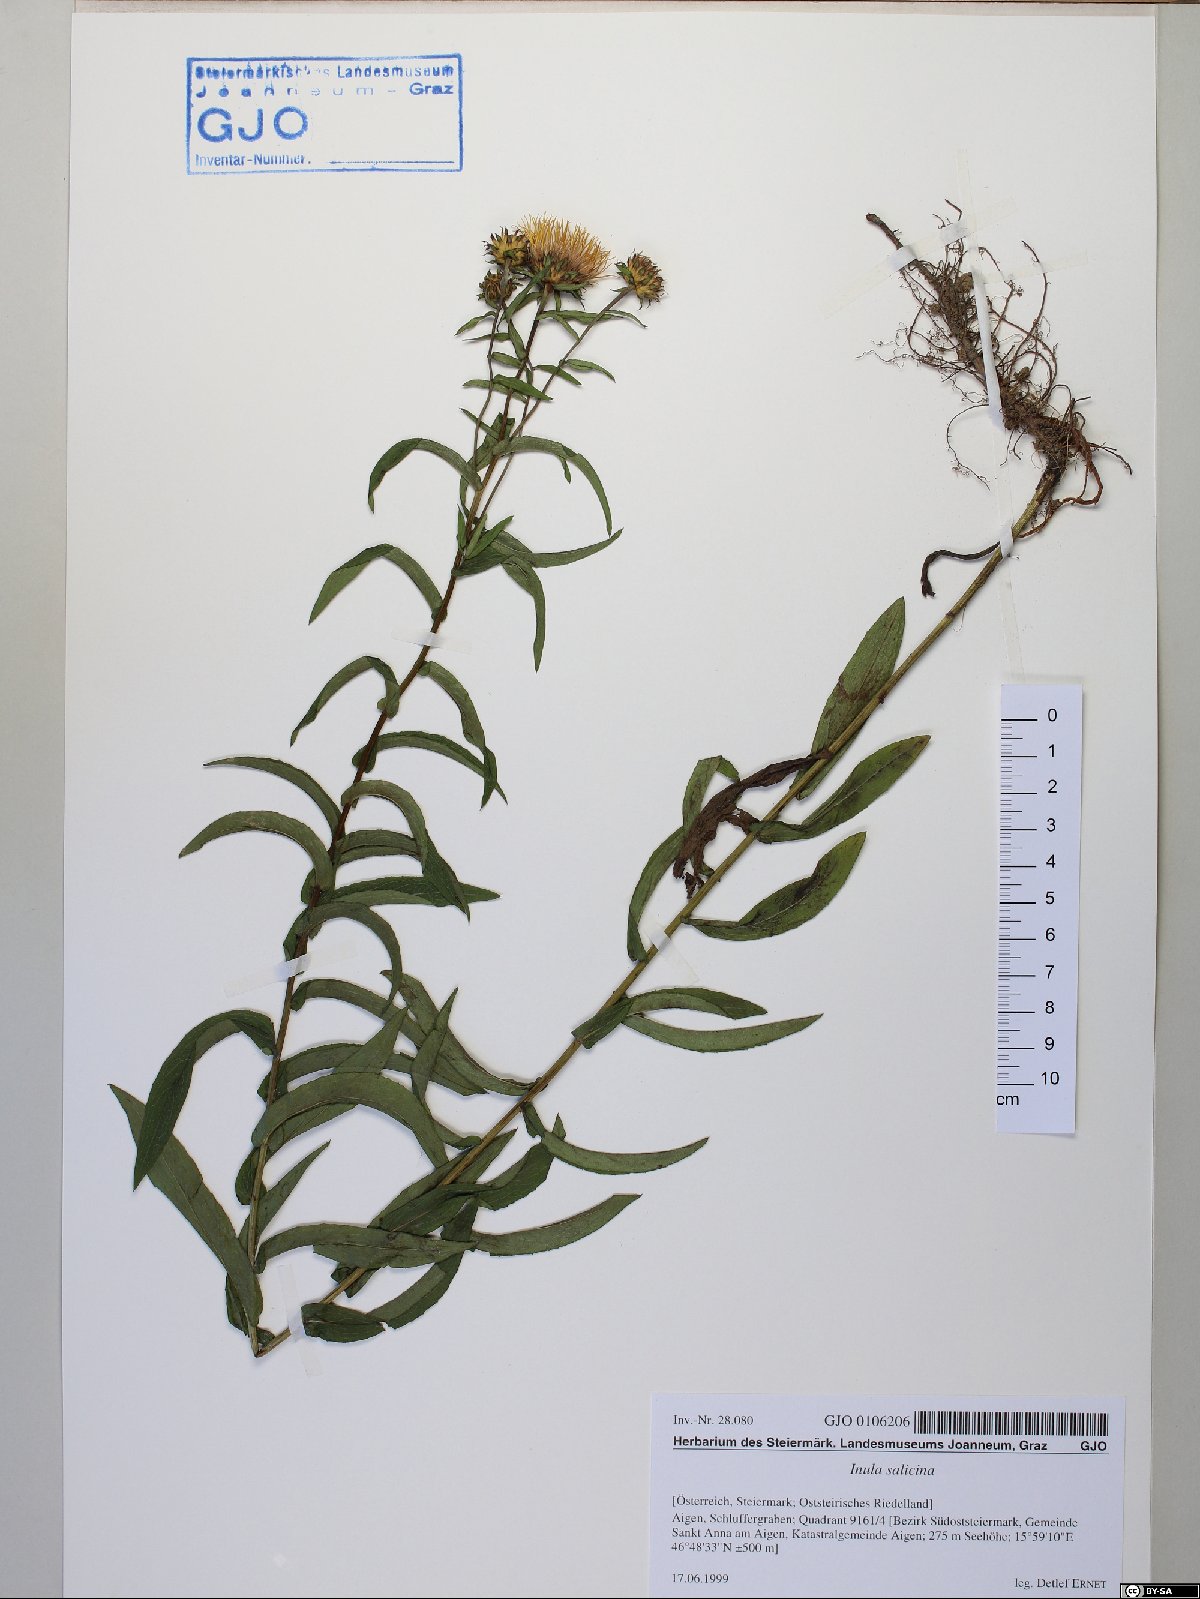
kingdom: Plantae
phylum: Tracheophyta
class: Magnoliopsida
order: Asterales
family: Asteraceae
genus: Pentanema
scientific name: Pentanema salicinum
